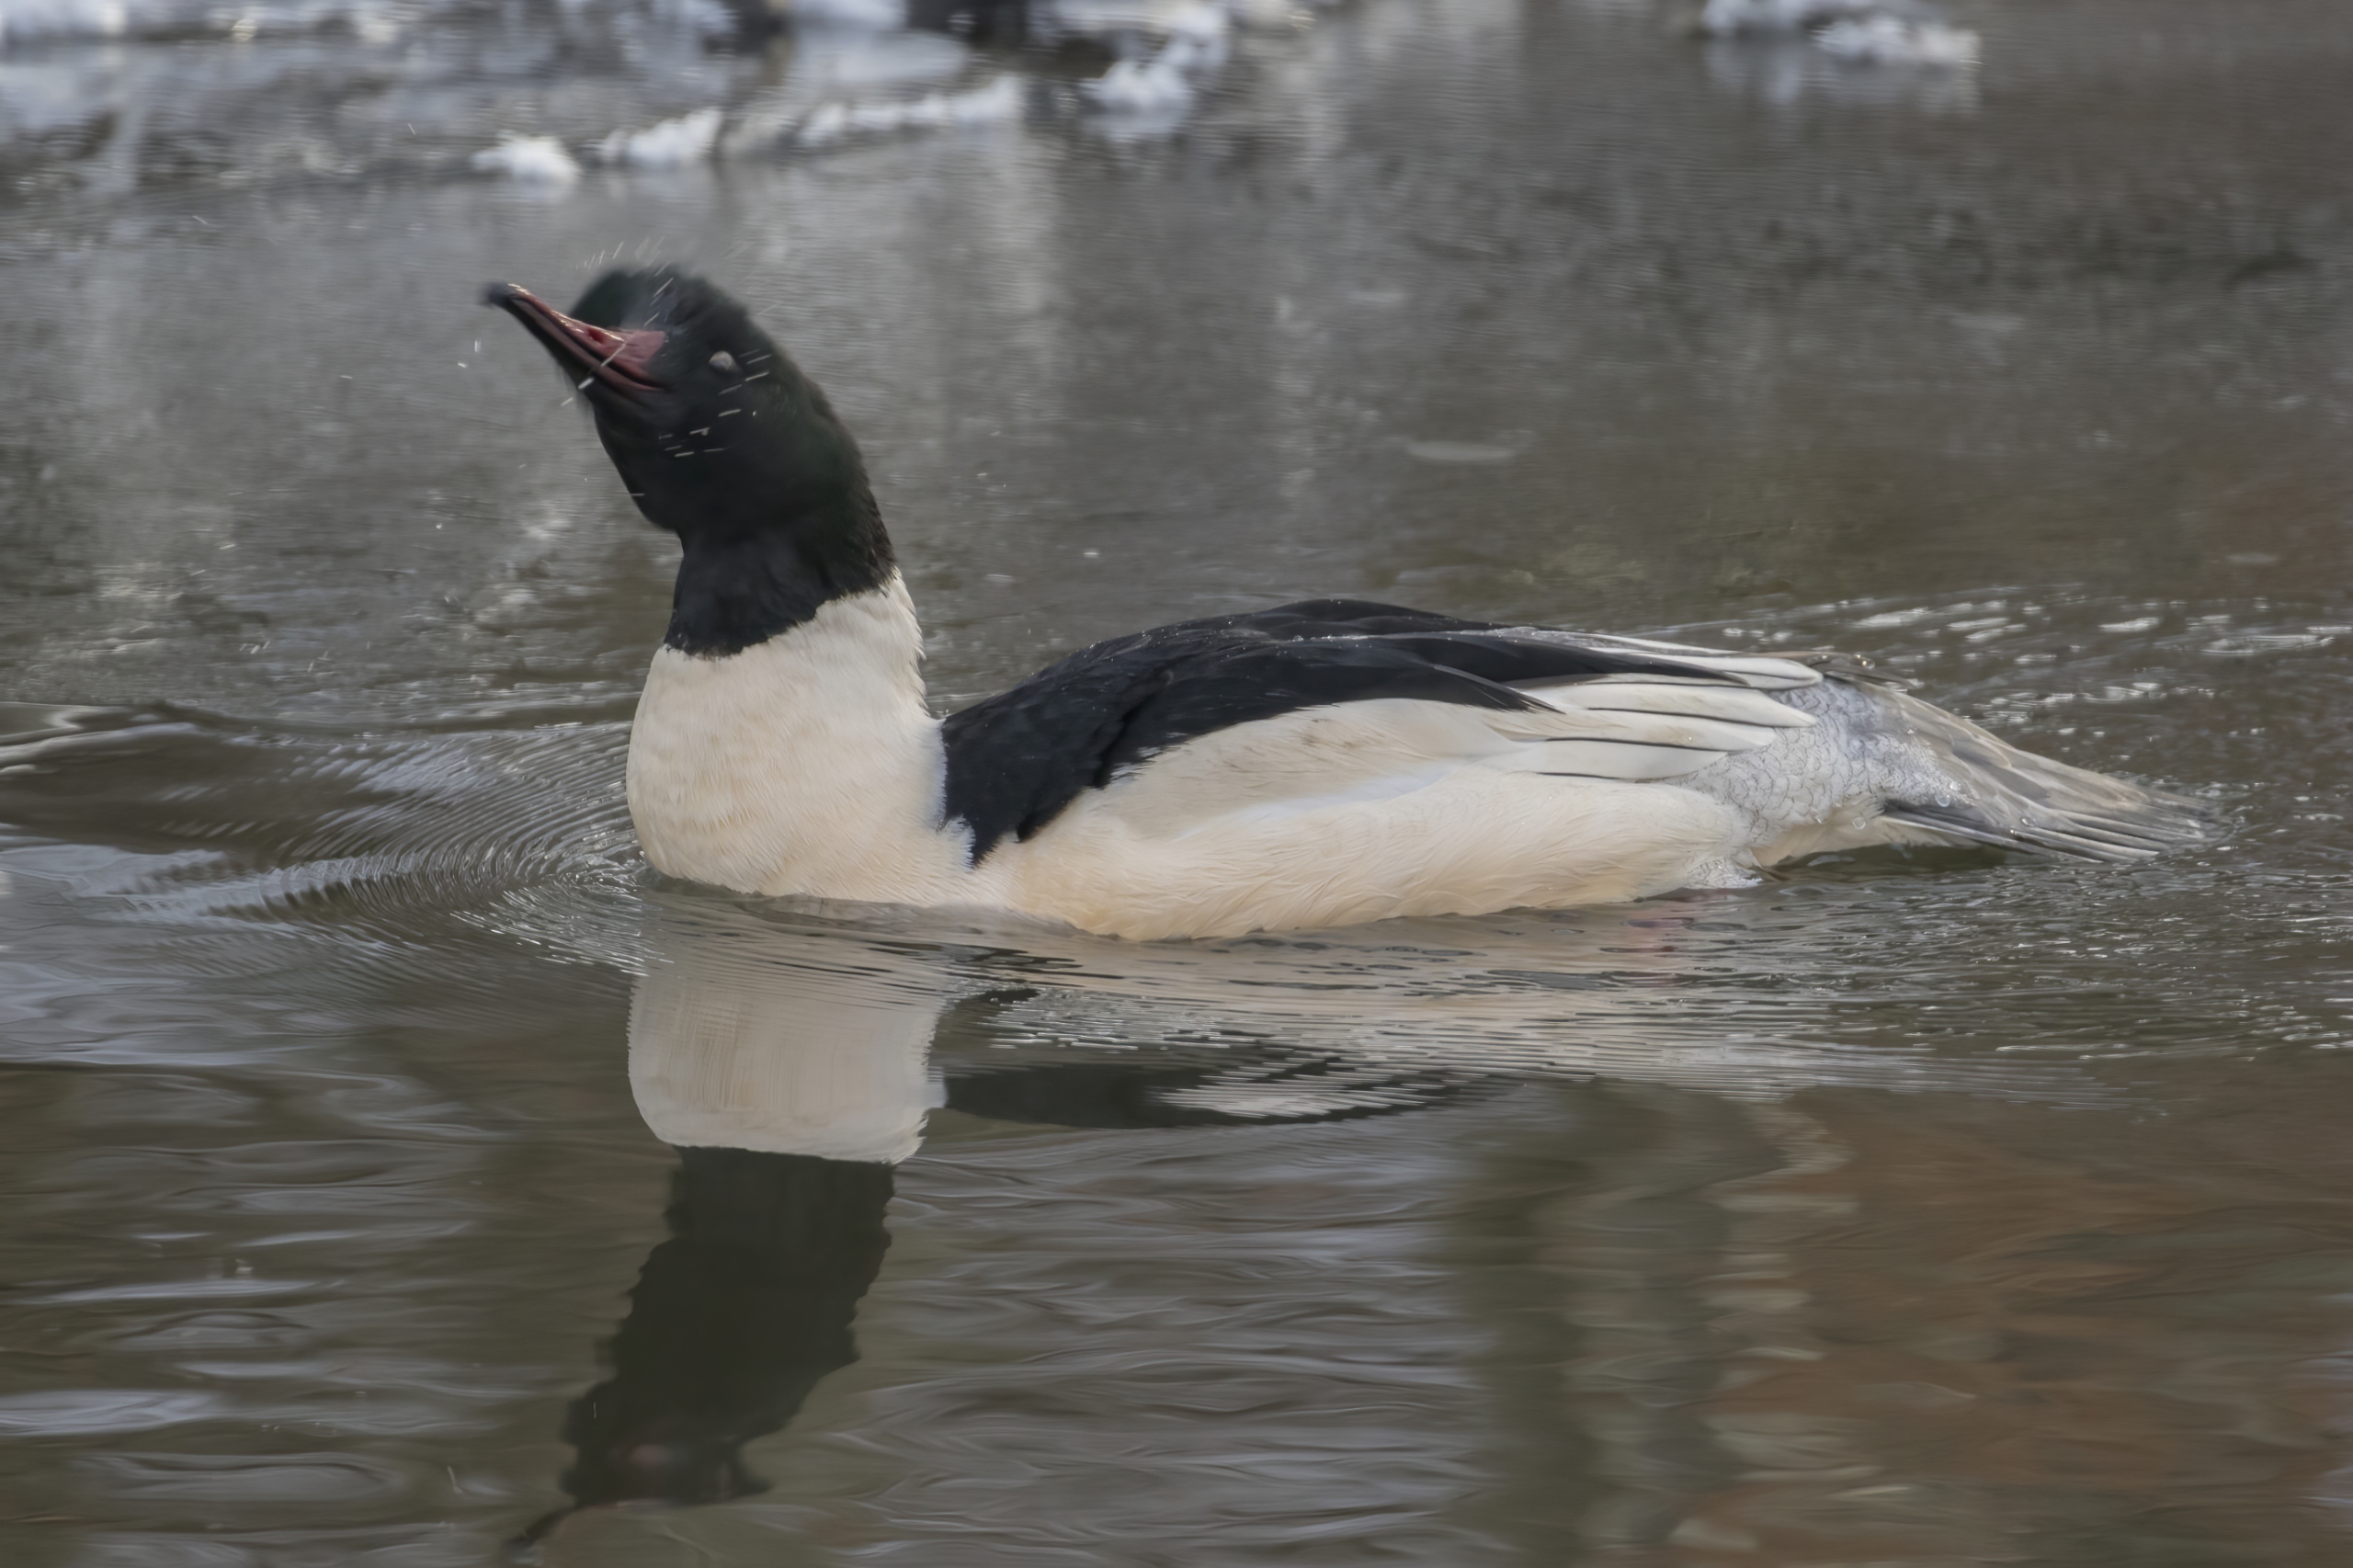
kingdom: Animalia
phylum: Chordata
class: Aves
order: Anseriformes
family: Anatidae
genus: Mergus
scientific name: Mergus merganser
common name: Stor skallesluger
